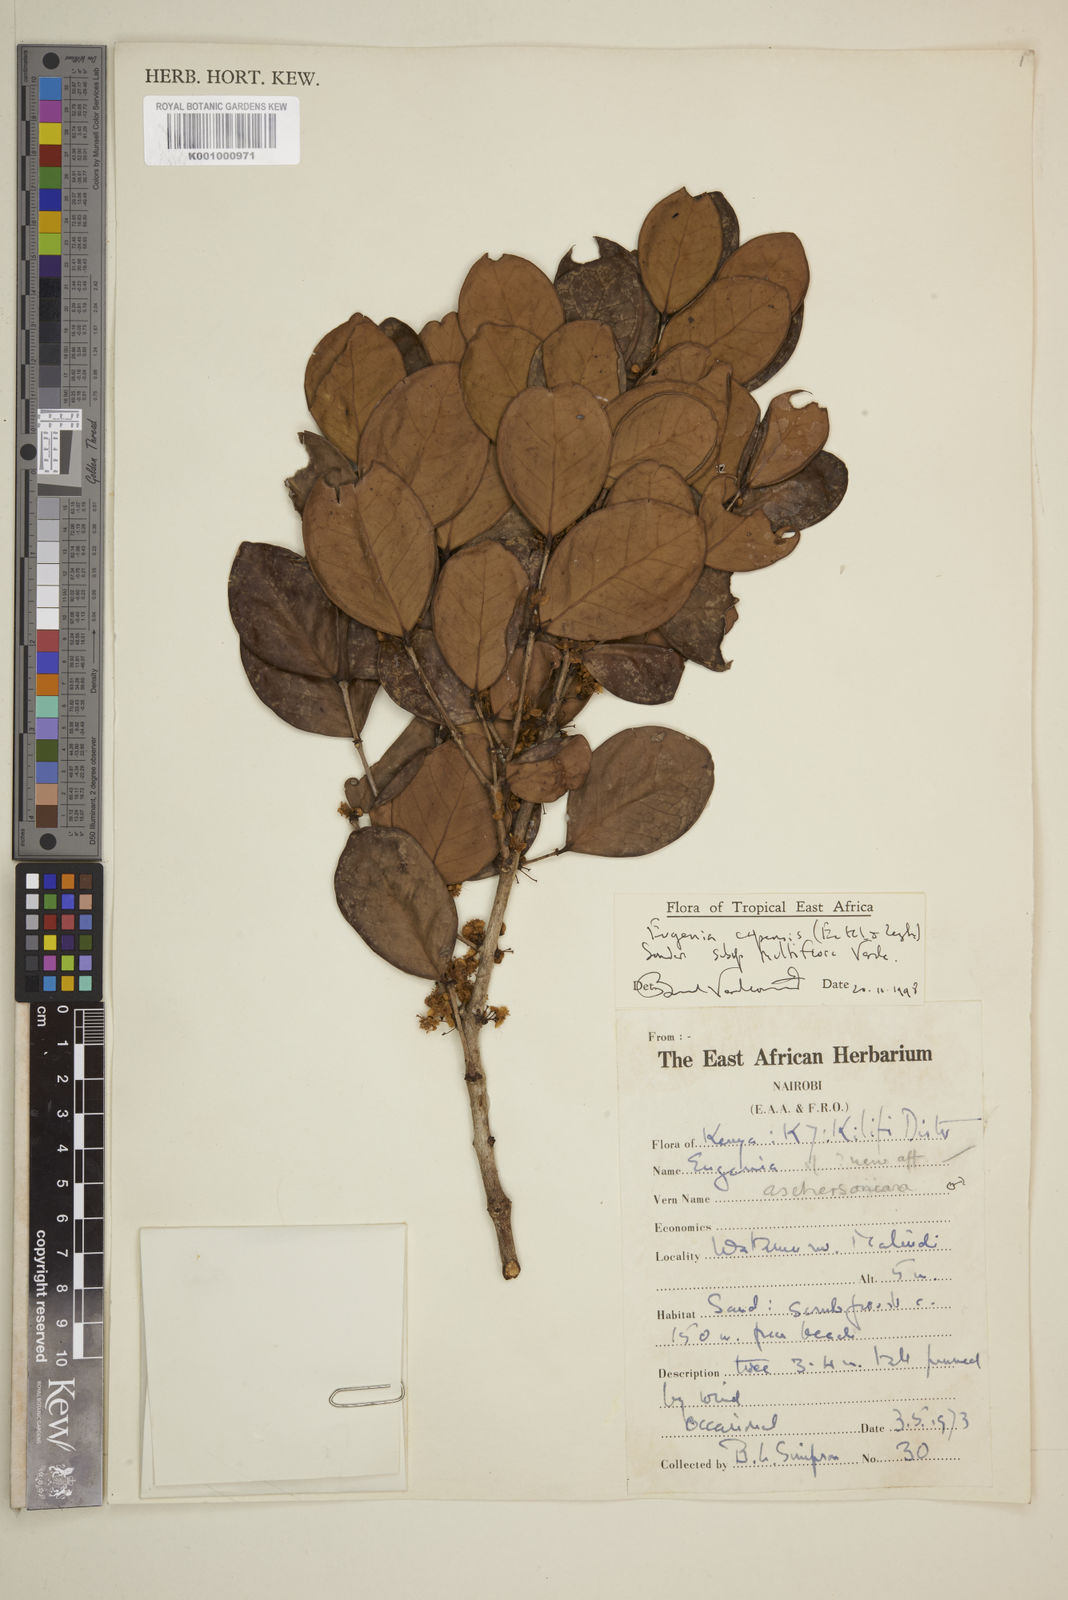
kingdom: Plantae
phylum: Tracheophyta
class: Magnoliopsida
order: Myrtales
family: Myrtaceae
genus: Eugenia
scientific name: Eugenia capensis
